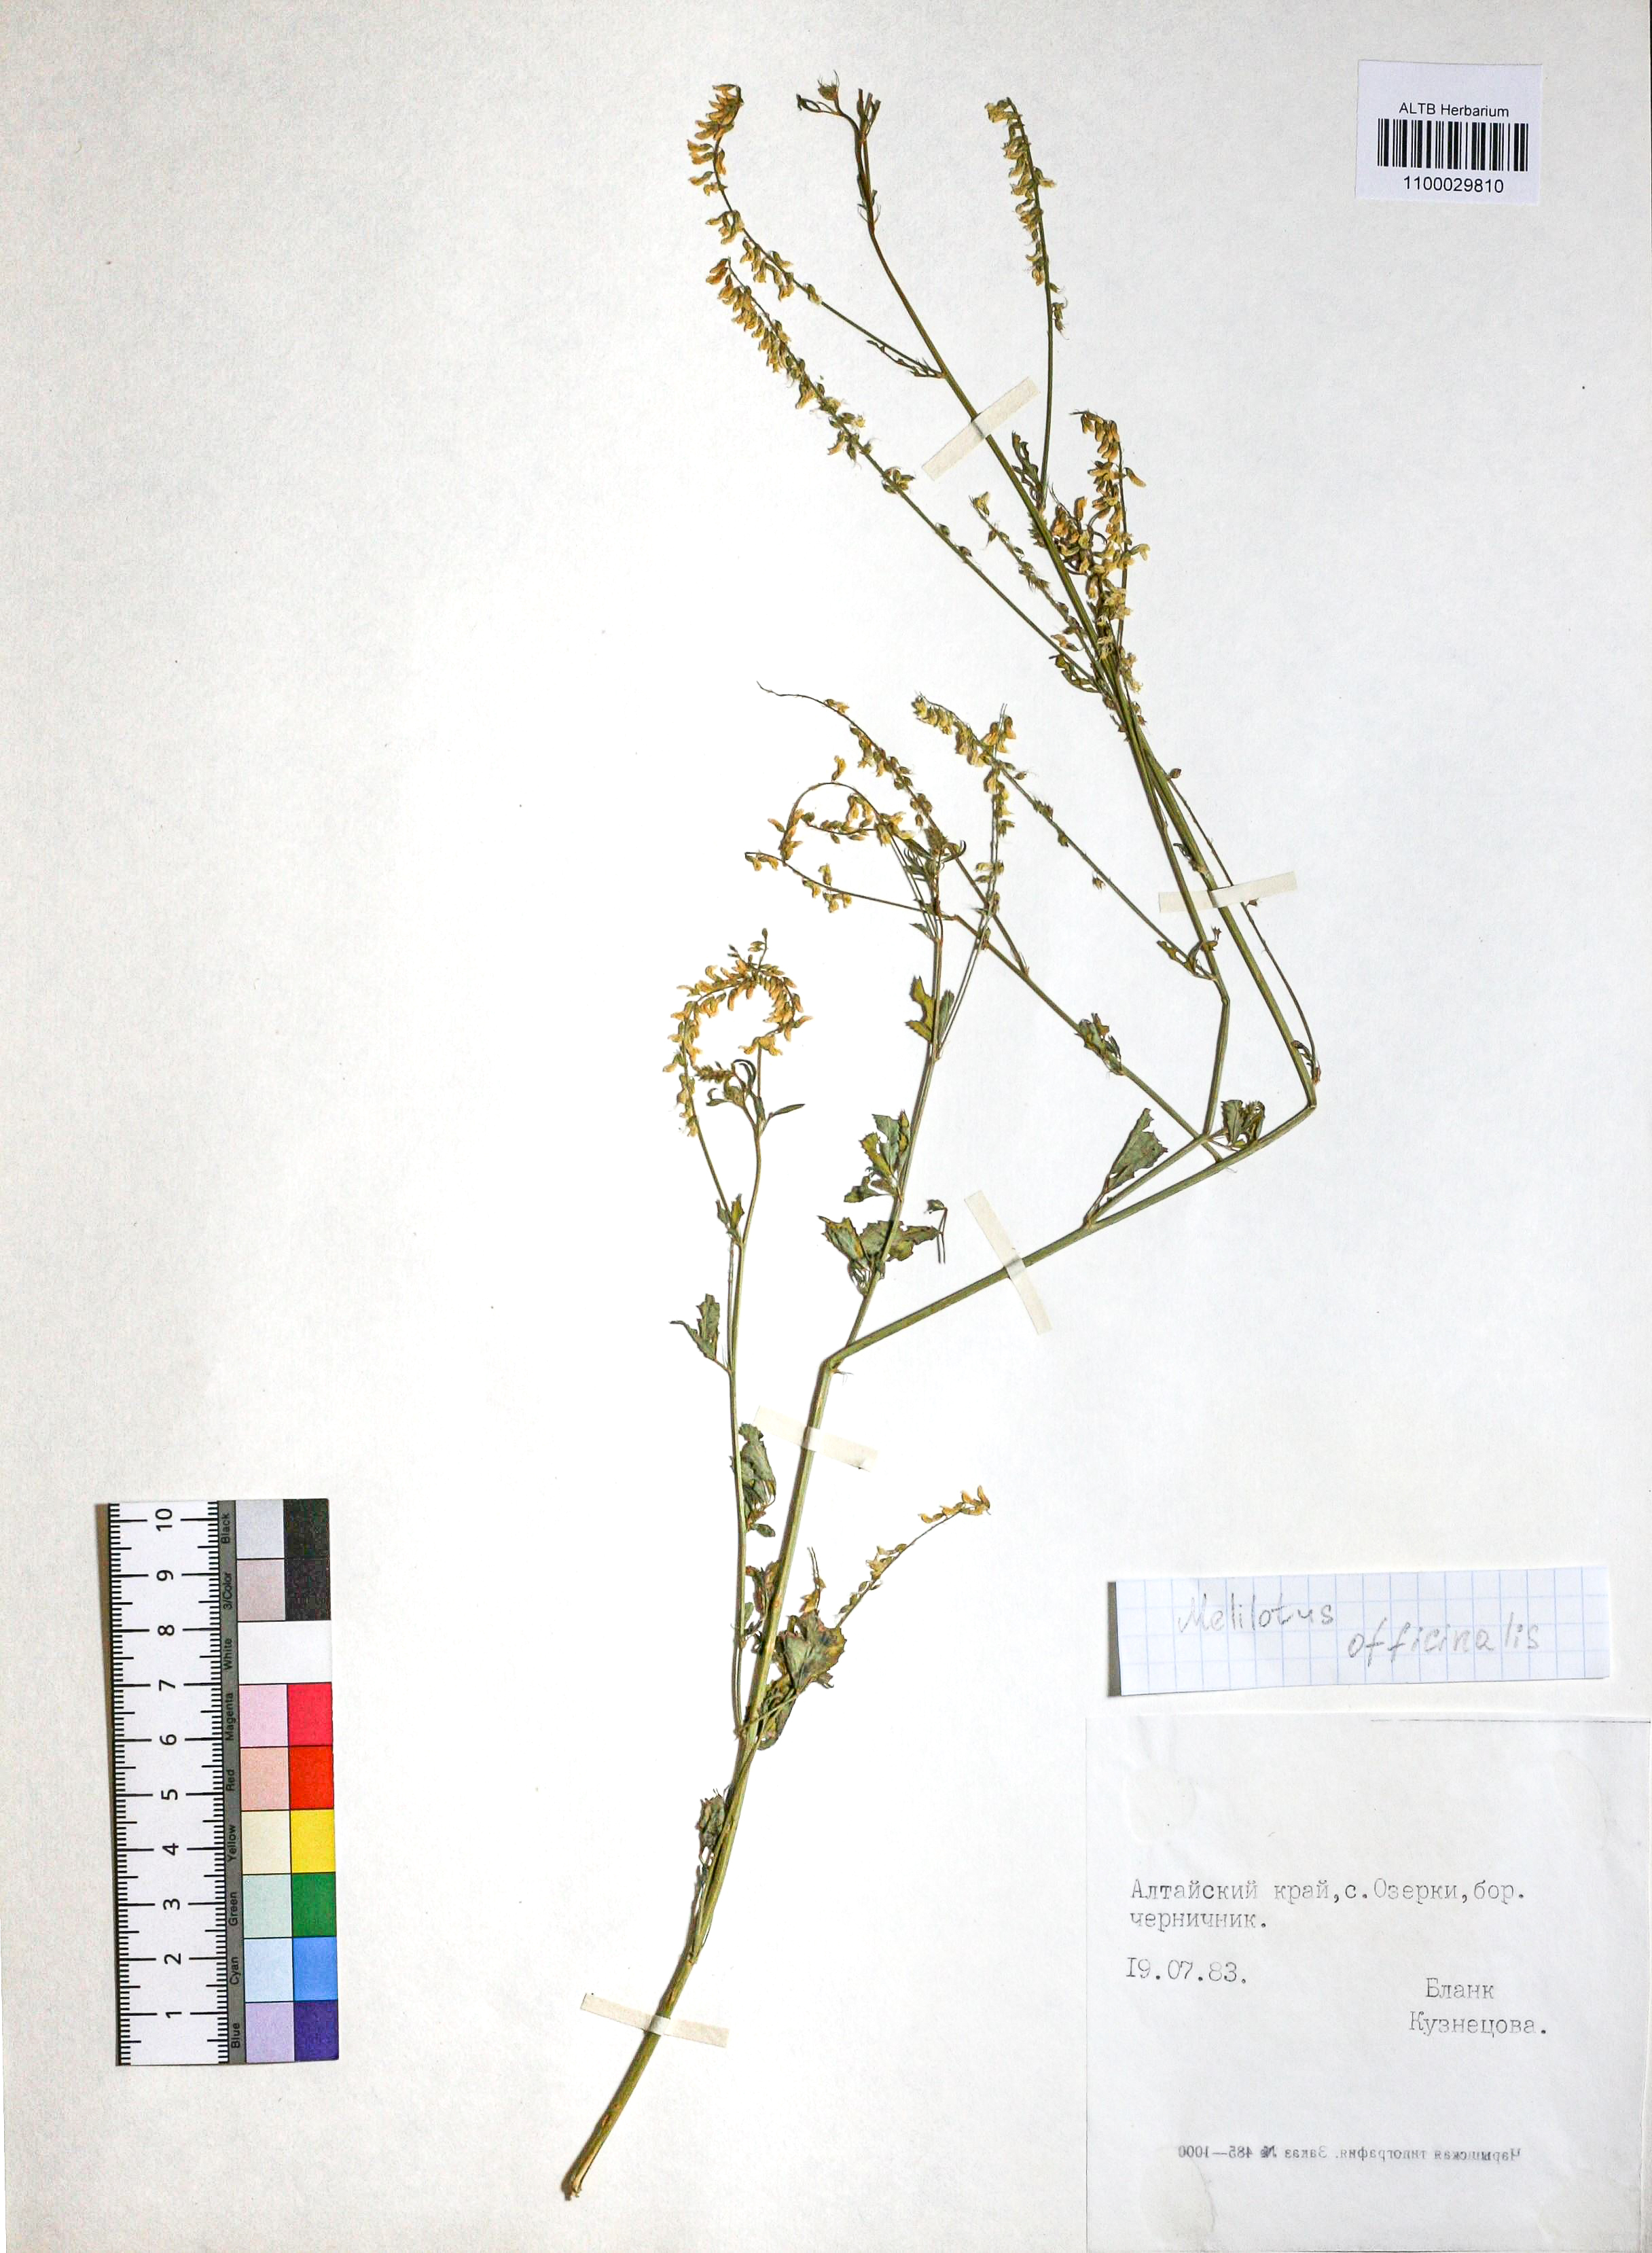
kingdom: Plantae
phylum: Tracheophyta
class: Magnoliopsida
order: Fabales
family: Fabaceae
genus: Melilotus
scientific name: Melilotus officinalis
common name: Sweetclover
